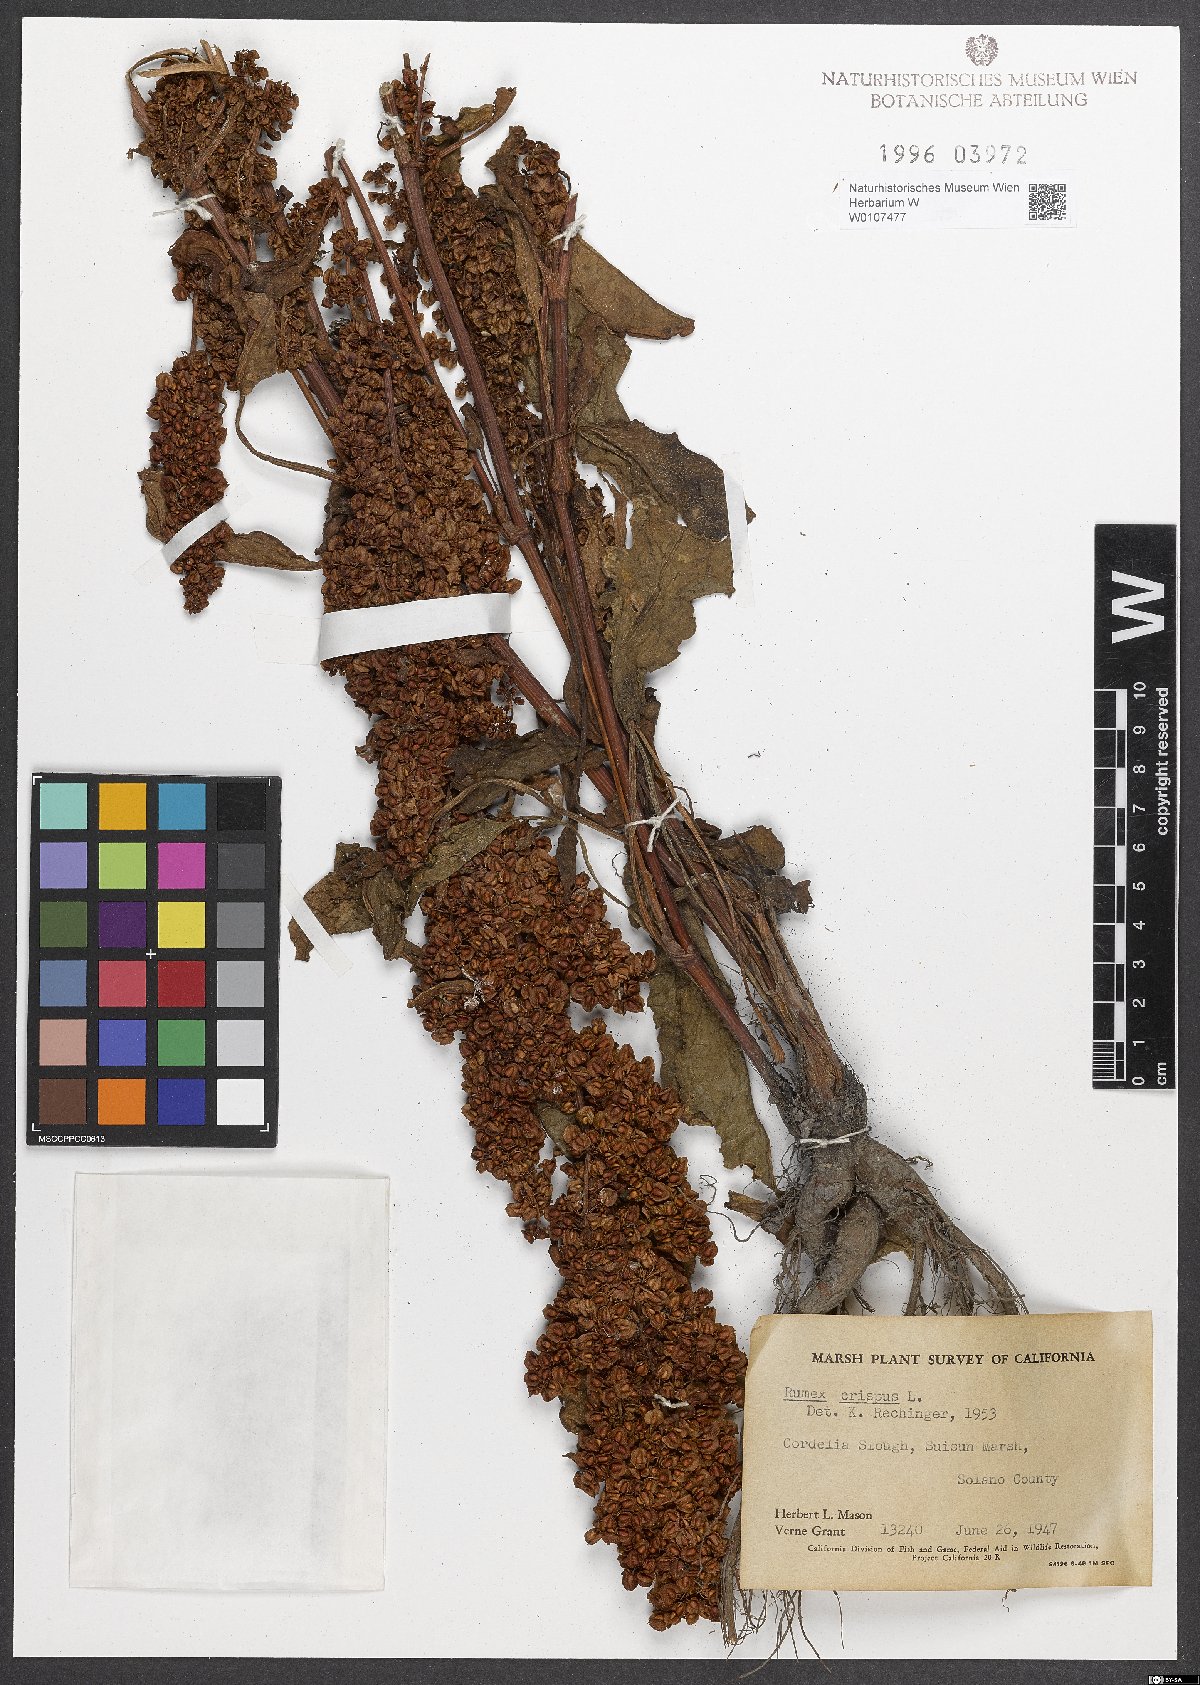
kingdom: Plantae
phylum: Tracheophyta
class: Magnoliopsida
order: Caryophyllales
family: Polygonaceae
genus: Rumex
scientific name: Rumex crispus
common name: Curled dock
